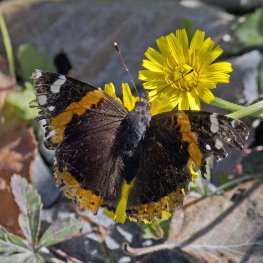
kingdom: Animalia
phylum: Arthropoda
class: Insecta
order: Lepidoptera
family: Nymphalidae
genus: Vanessa
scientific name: Vanessa atalanta
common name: Red Admiral
